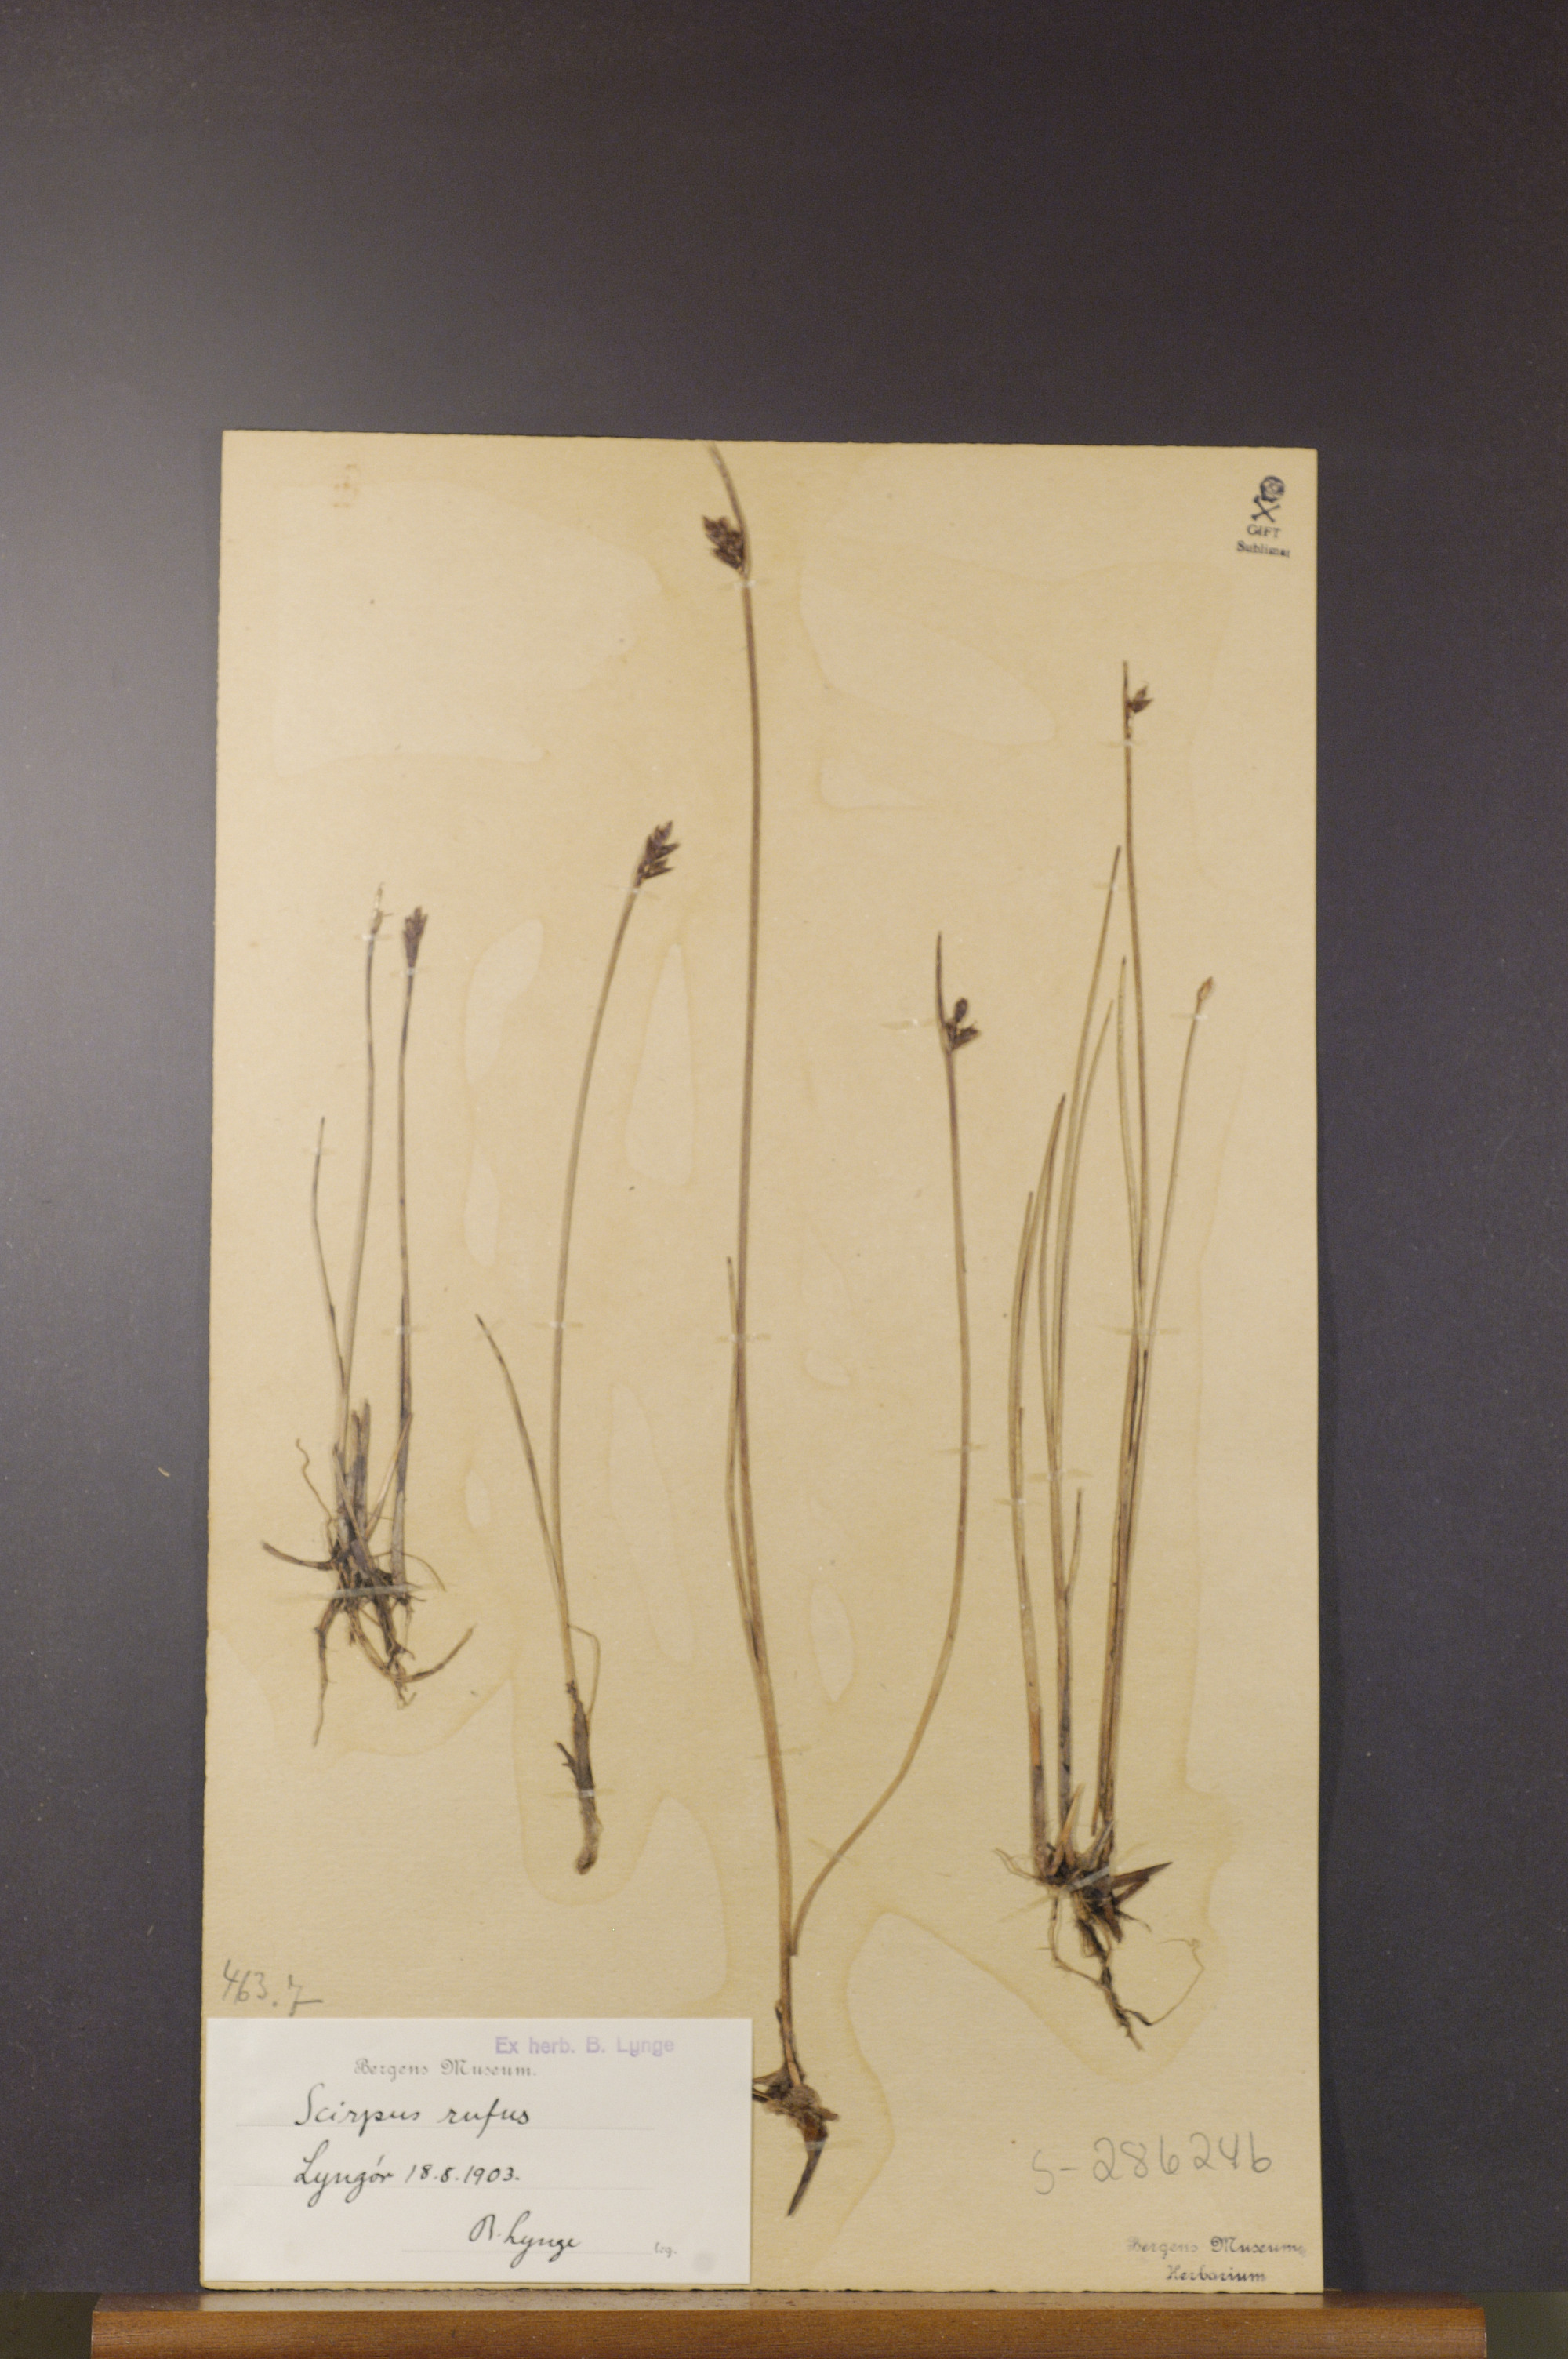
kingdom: Plantae
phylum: Tracheophyta
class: Liliopsida
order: Poales
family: Cyperaceae
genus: Blysmus
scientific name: Blysmus rufus
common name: Saltmarsh flat-sedge
